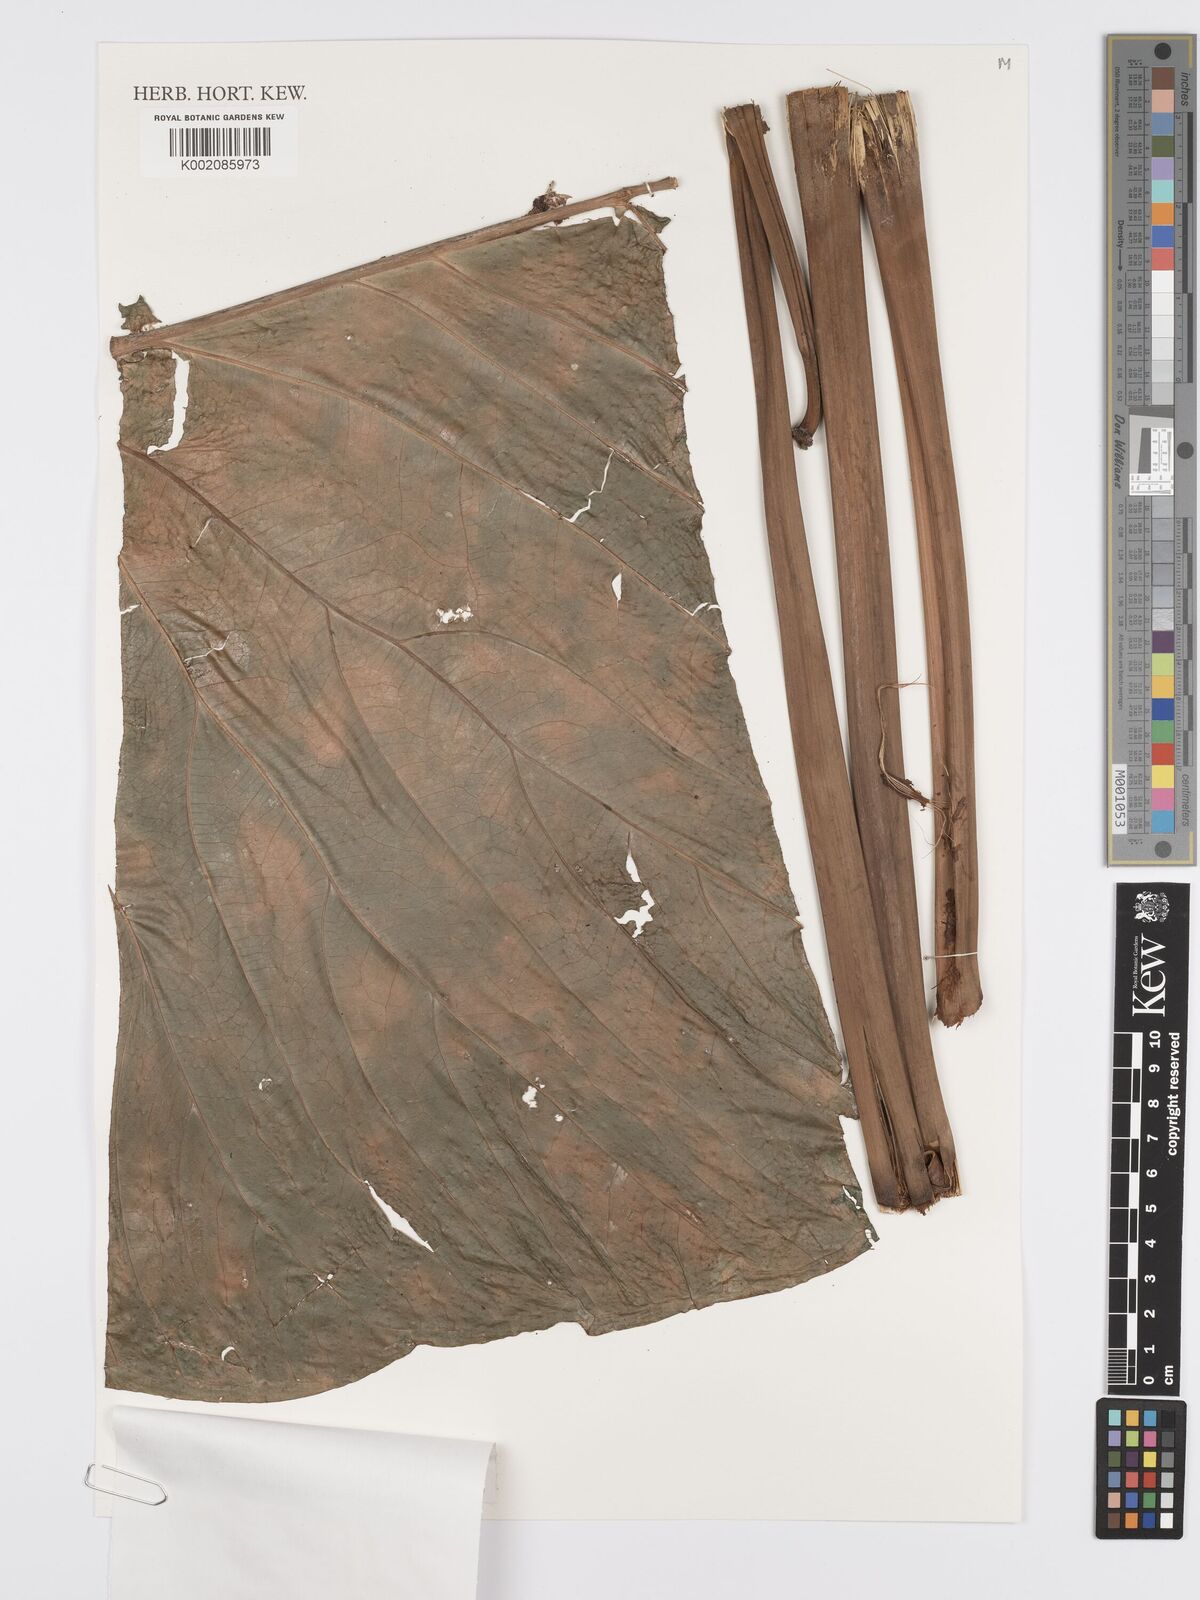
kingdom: Plantae
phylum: Tracheophyta
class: Liliopsida
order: Alismatales
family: Araceae
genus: Anthurium
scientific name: Anthurium dolichostachyum
